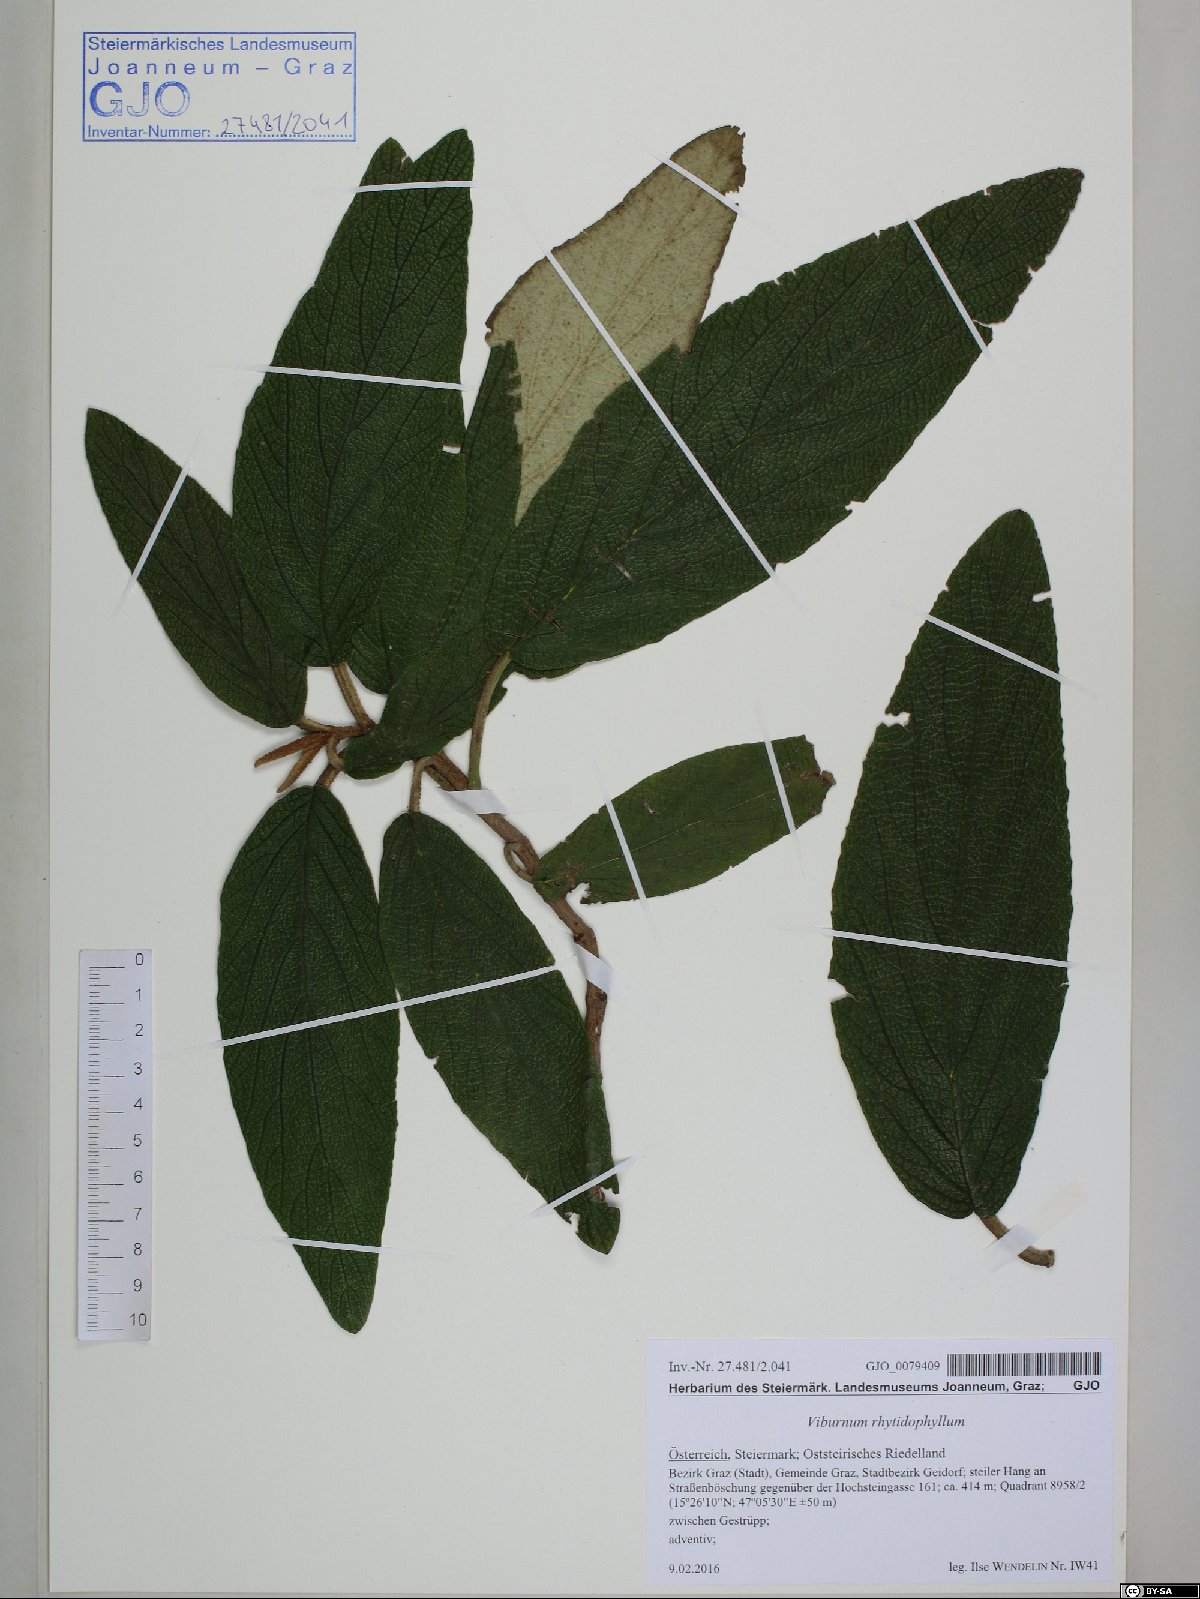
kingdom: Plantae
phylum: Tracheophyta
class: Magnoliopsida
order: Dipsacales
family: Viburnaceae
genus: Viburnum
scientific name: Viburnum rhytidophyllum
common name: Wrinkled viburnum
